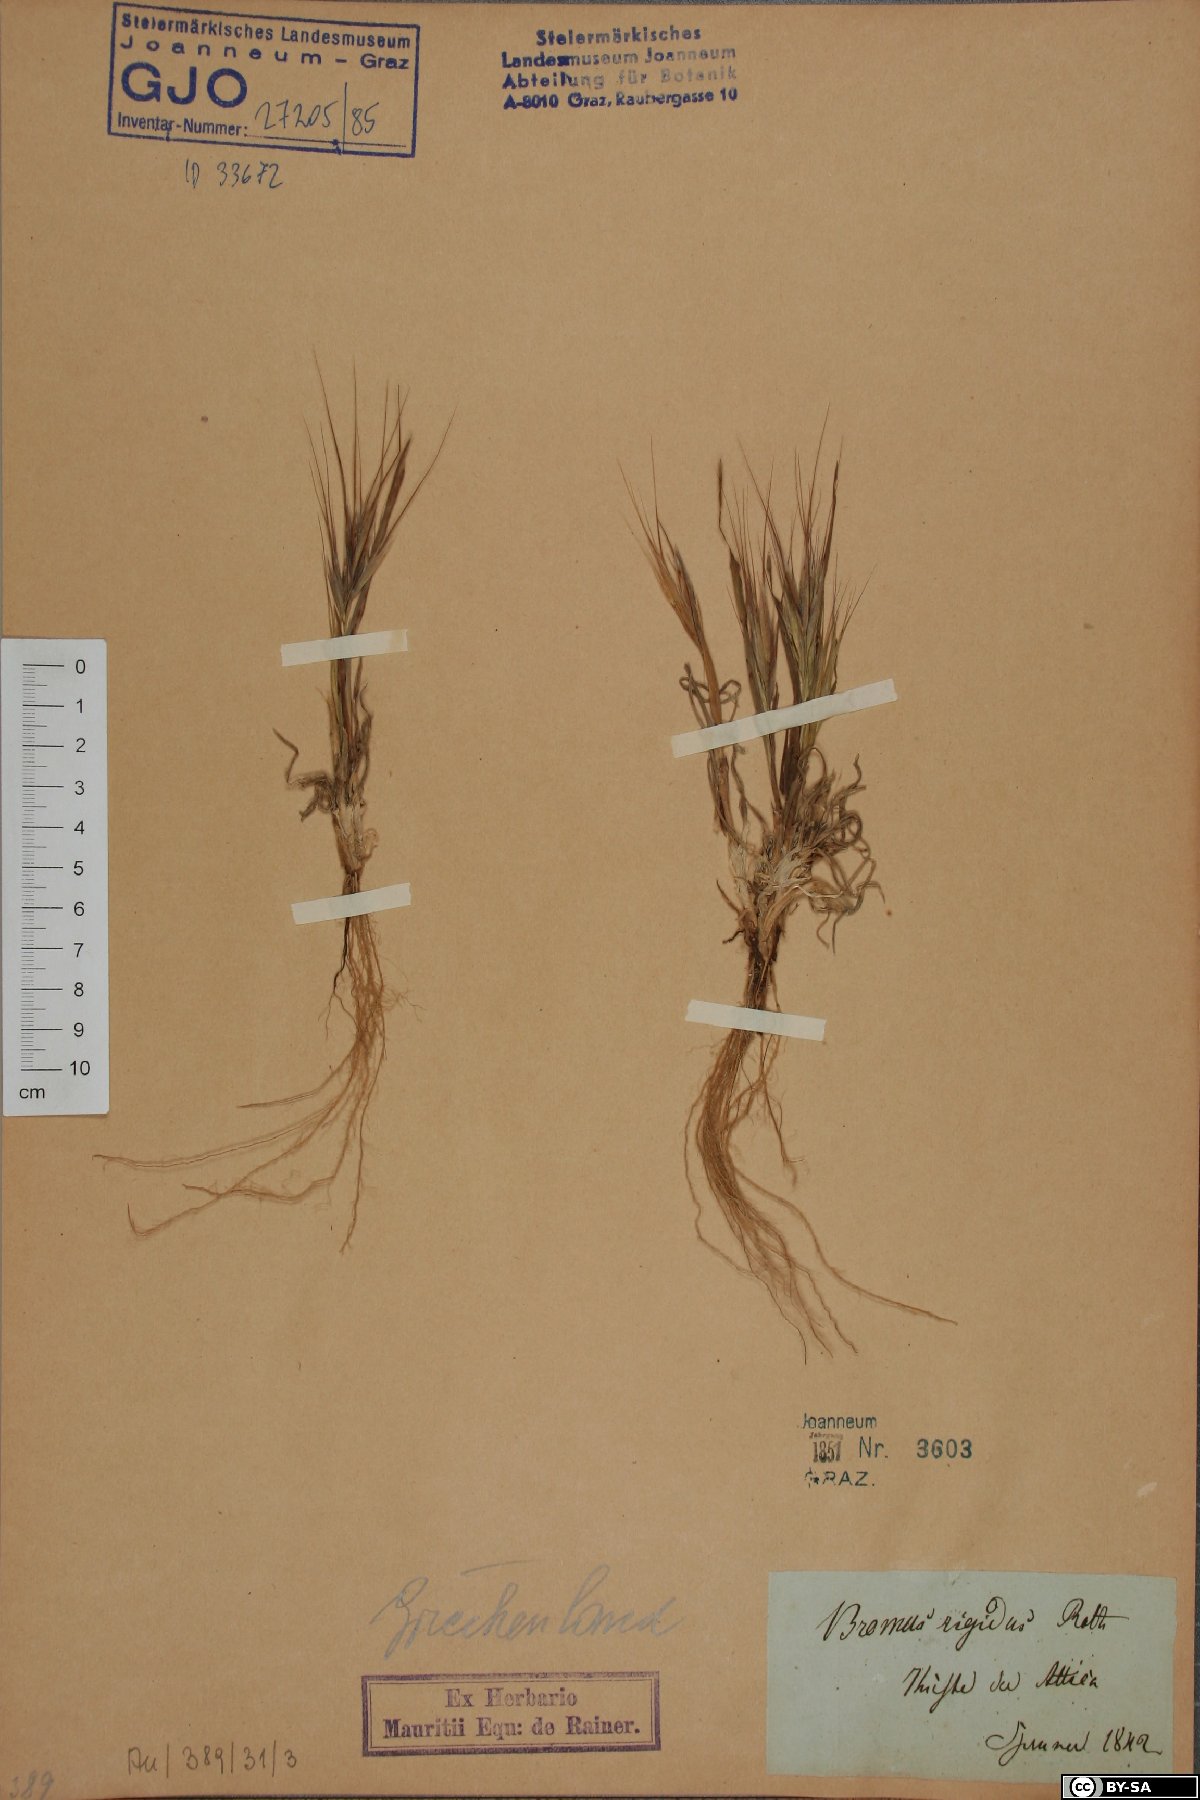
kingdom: Plantae
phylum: Tracheophyta
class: Liliopsida
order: Poales
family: Poaceae
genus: Bromus
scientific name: Bromus rigidus
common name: Ripgut brome
